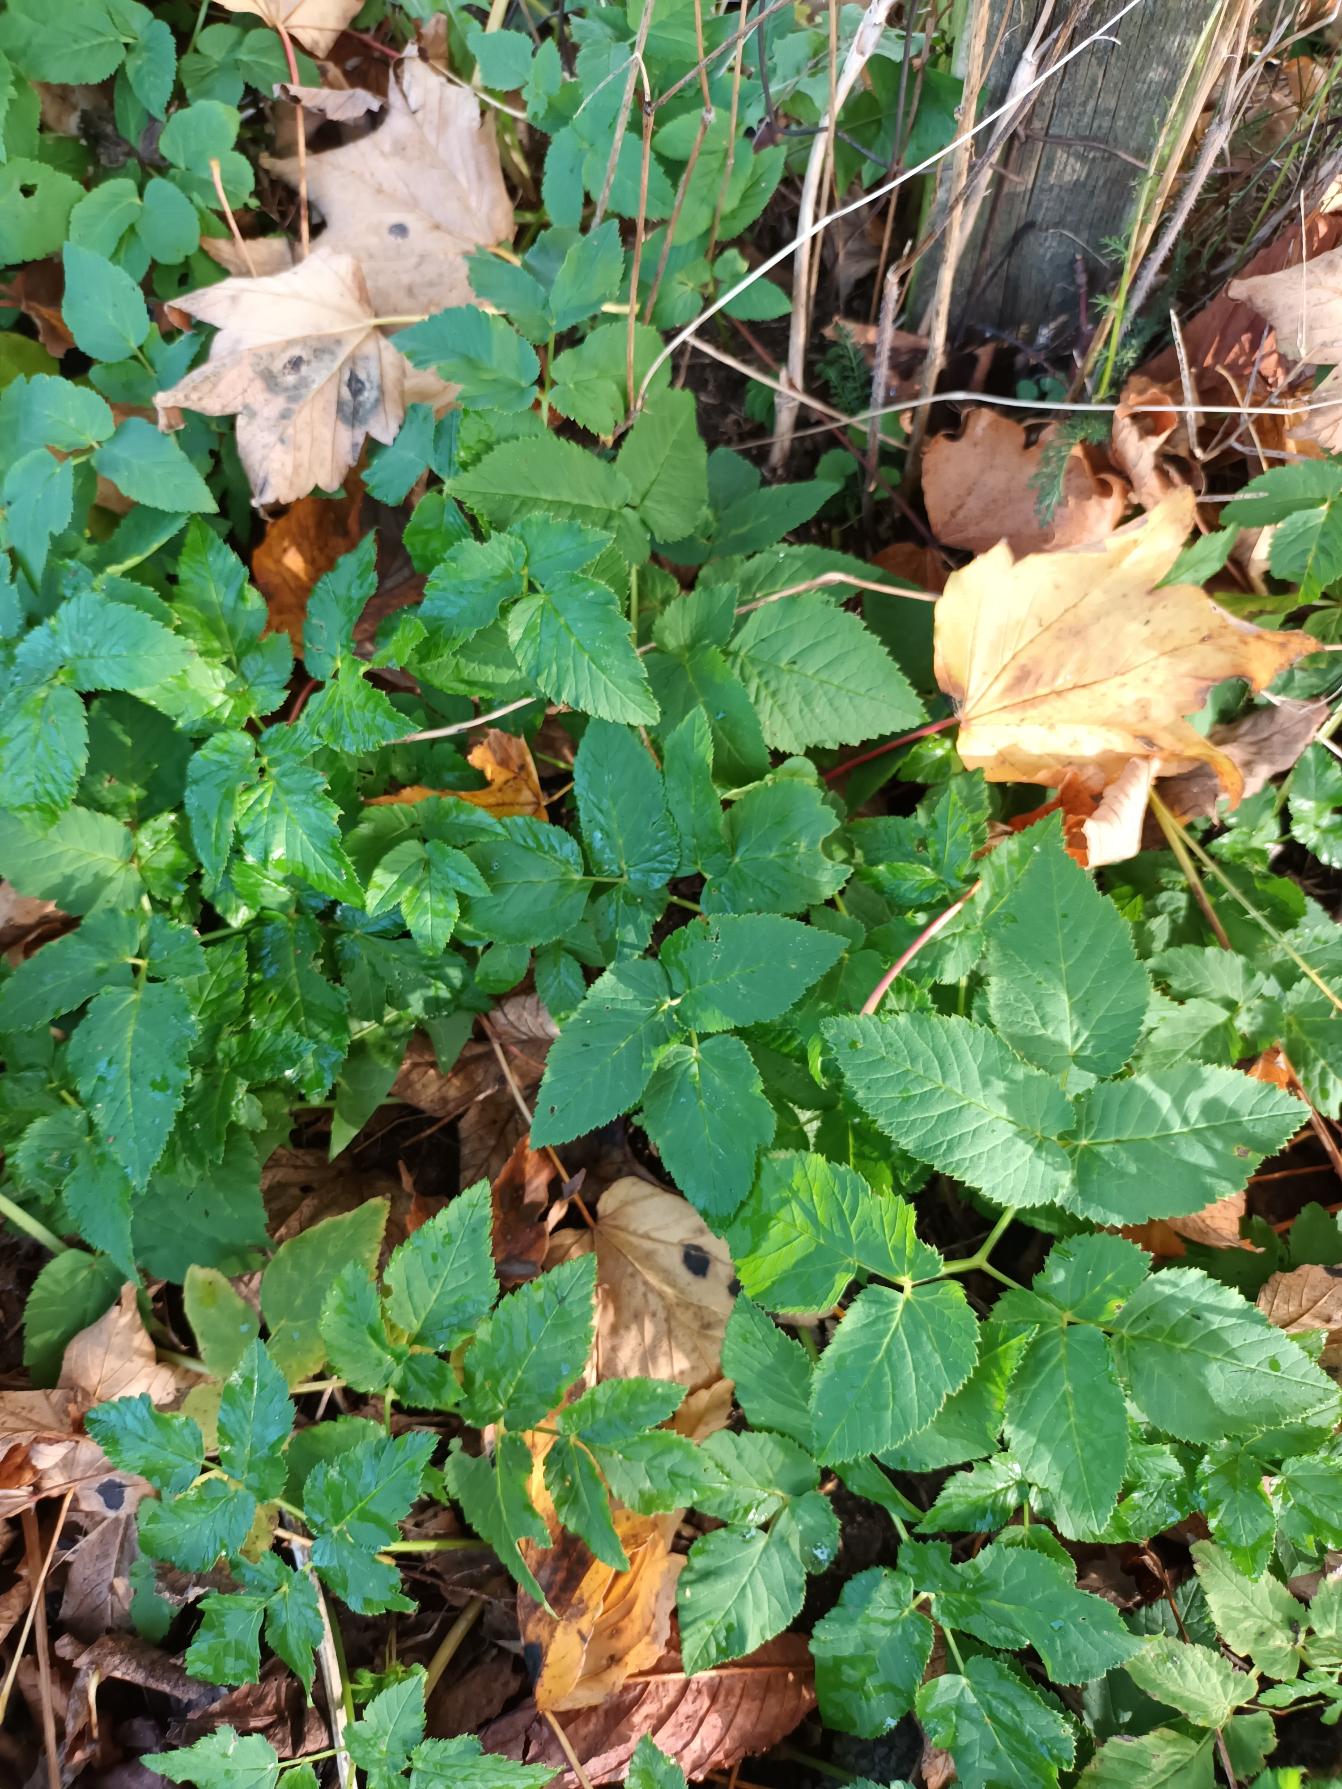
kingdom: Plantae
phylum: Tracheophyta
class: Magnoliopsida
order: Apiales
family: Apiaceae
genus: Aegopodium
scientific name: Aegopodium podagraria
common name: Skvalderkål
